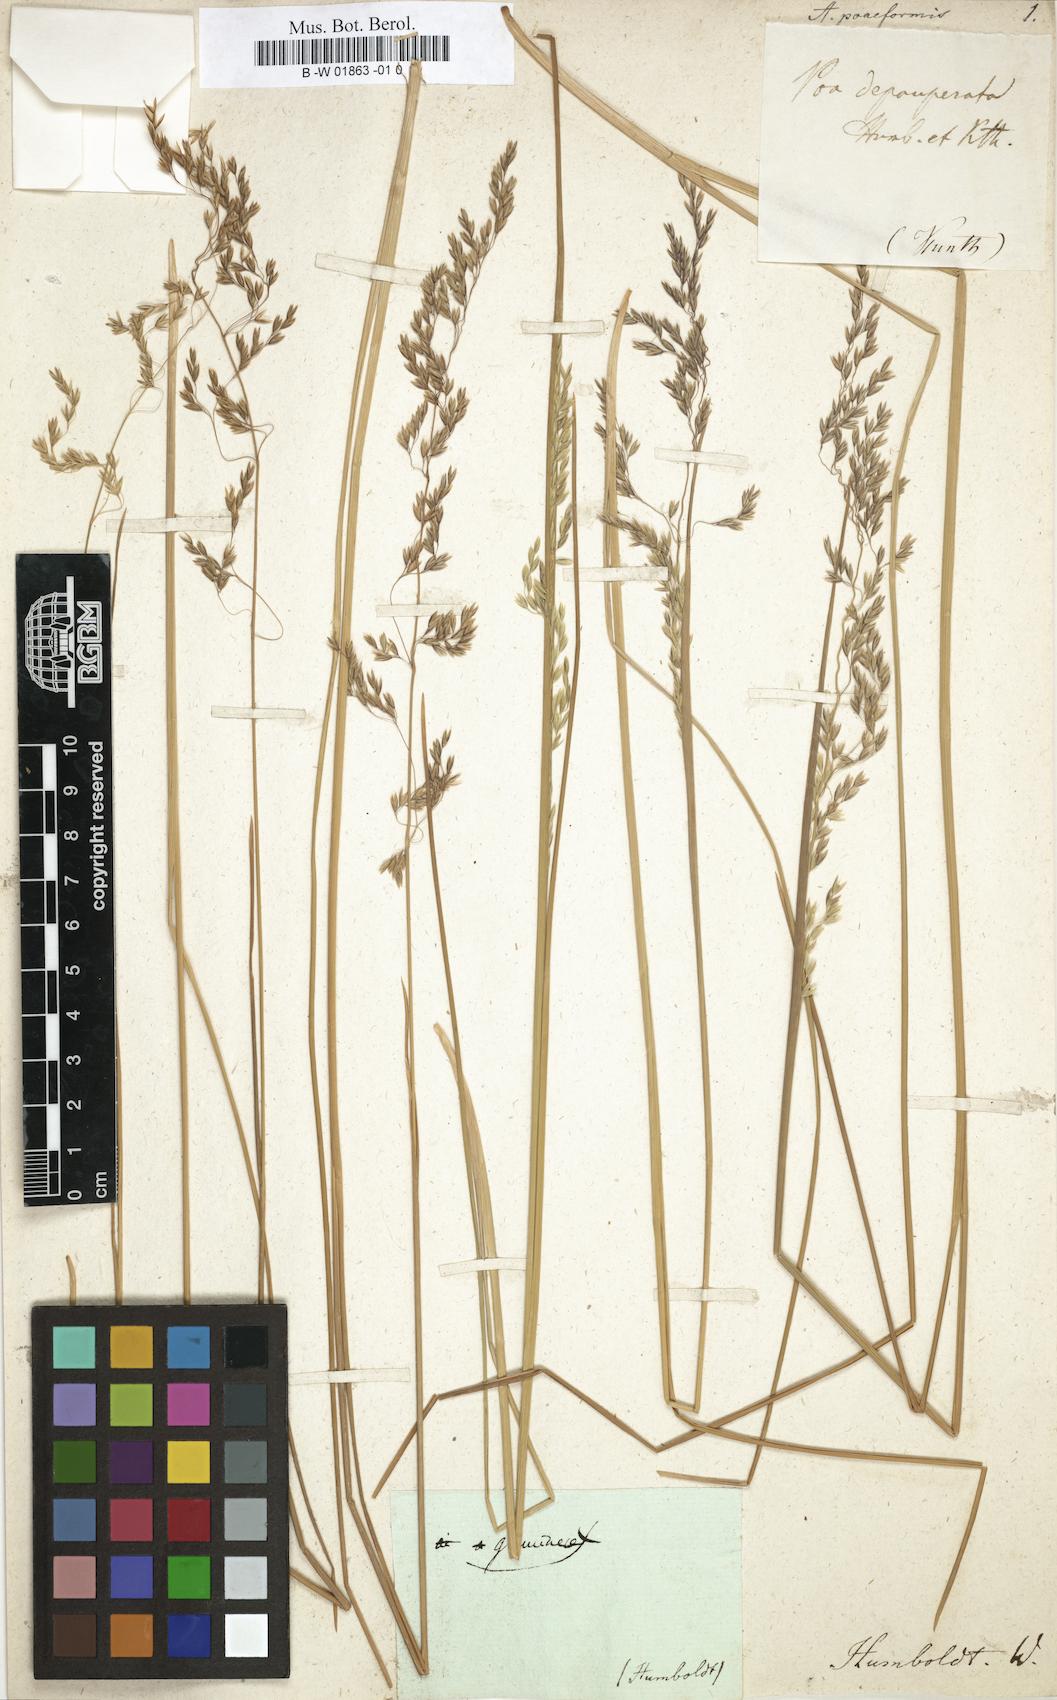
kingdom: Plantae
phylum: Tracheophyta
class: Liliopsida
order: Poales
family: Poaceae
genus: Poa
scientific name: Poa cucullata
